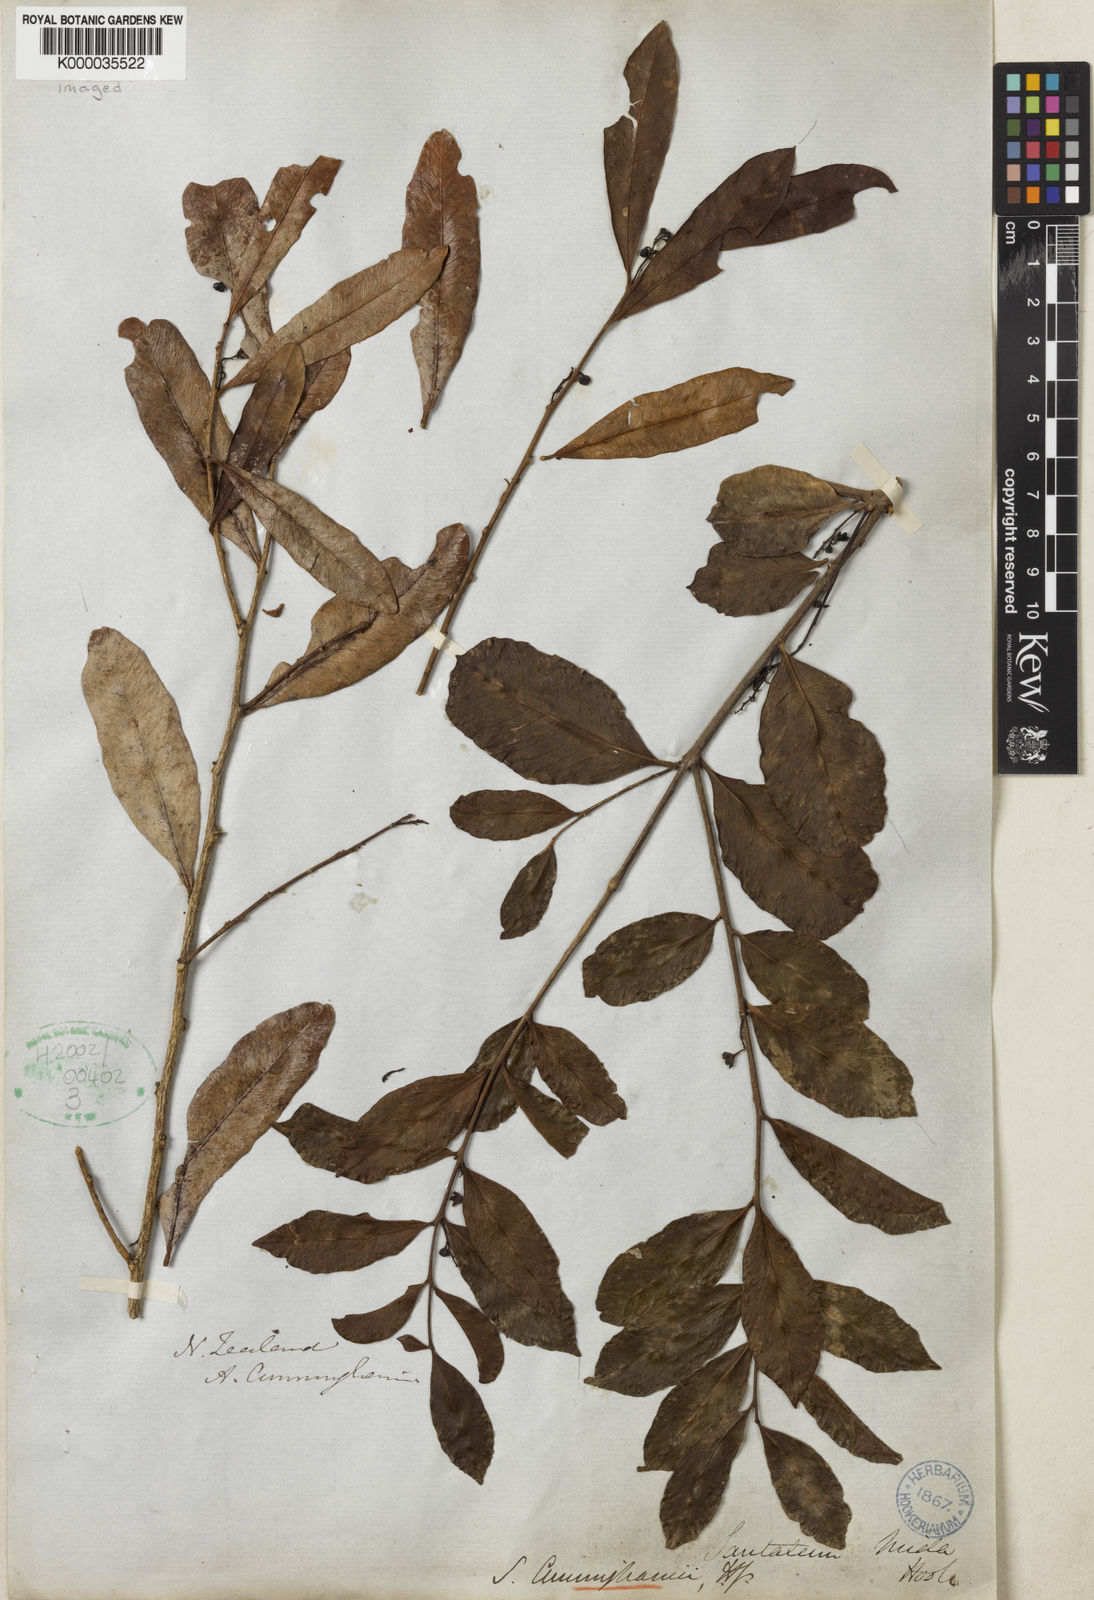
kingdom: Plantae
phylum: Tracheophyta
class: Magnoliopsida
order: Santalales
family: Nanodeaceae
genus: Mida
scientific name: Mida salicifolia
